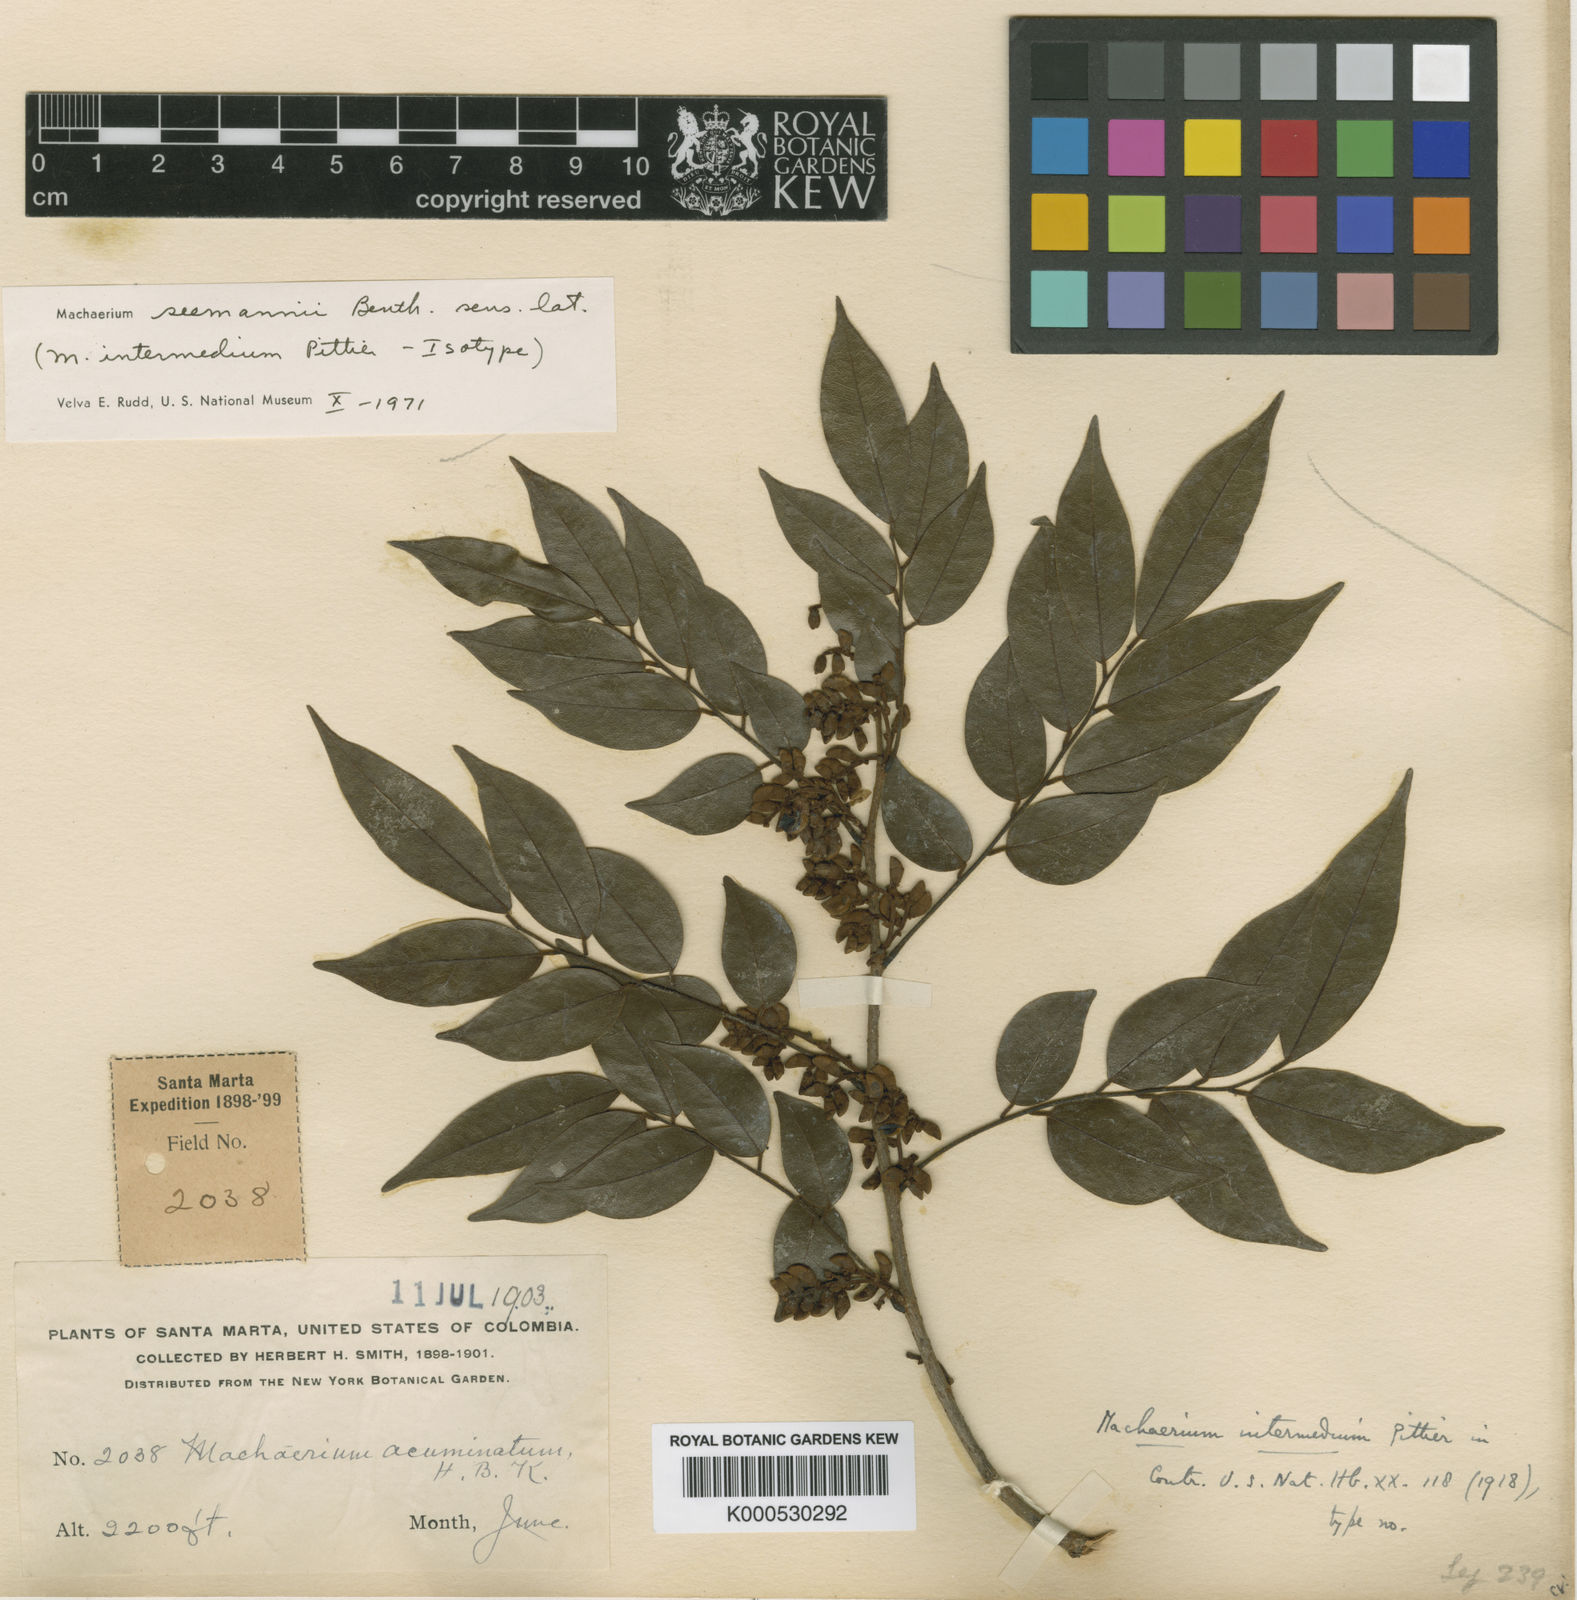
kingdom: Plantae
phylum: Tracheophyta
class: Magnoliopsida
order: Fabales
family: Fabaceae
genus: Machaerium
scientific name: Machaerium seemannii
